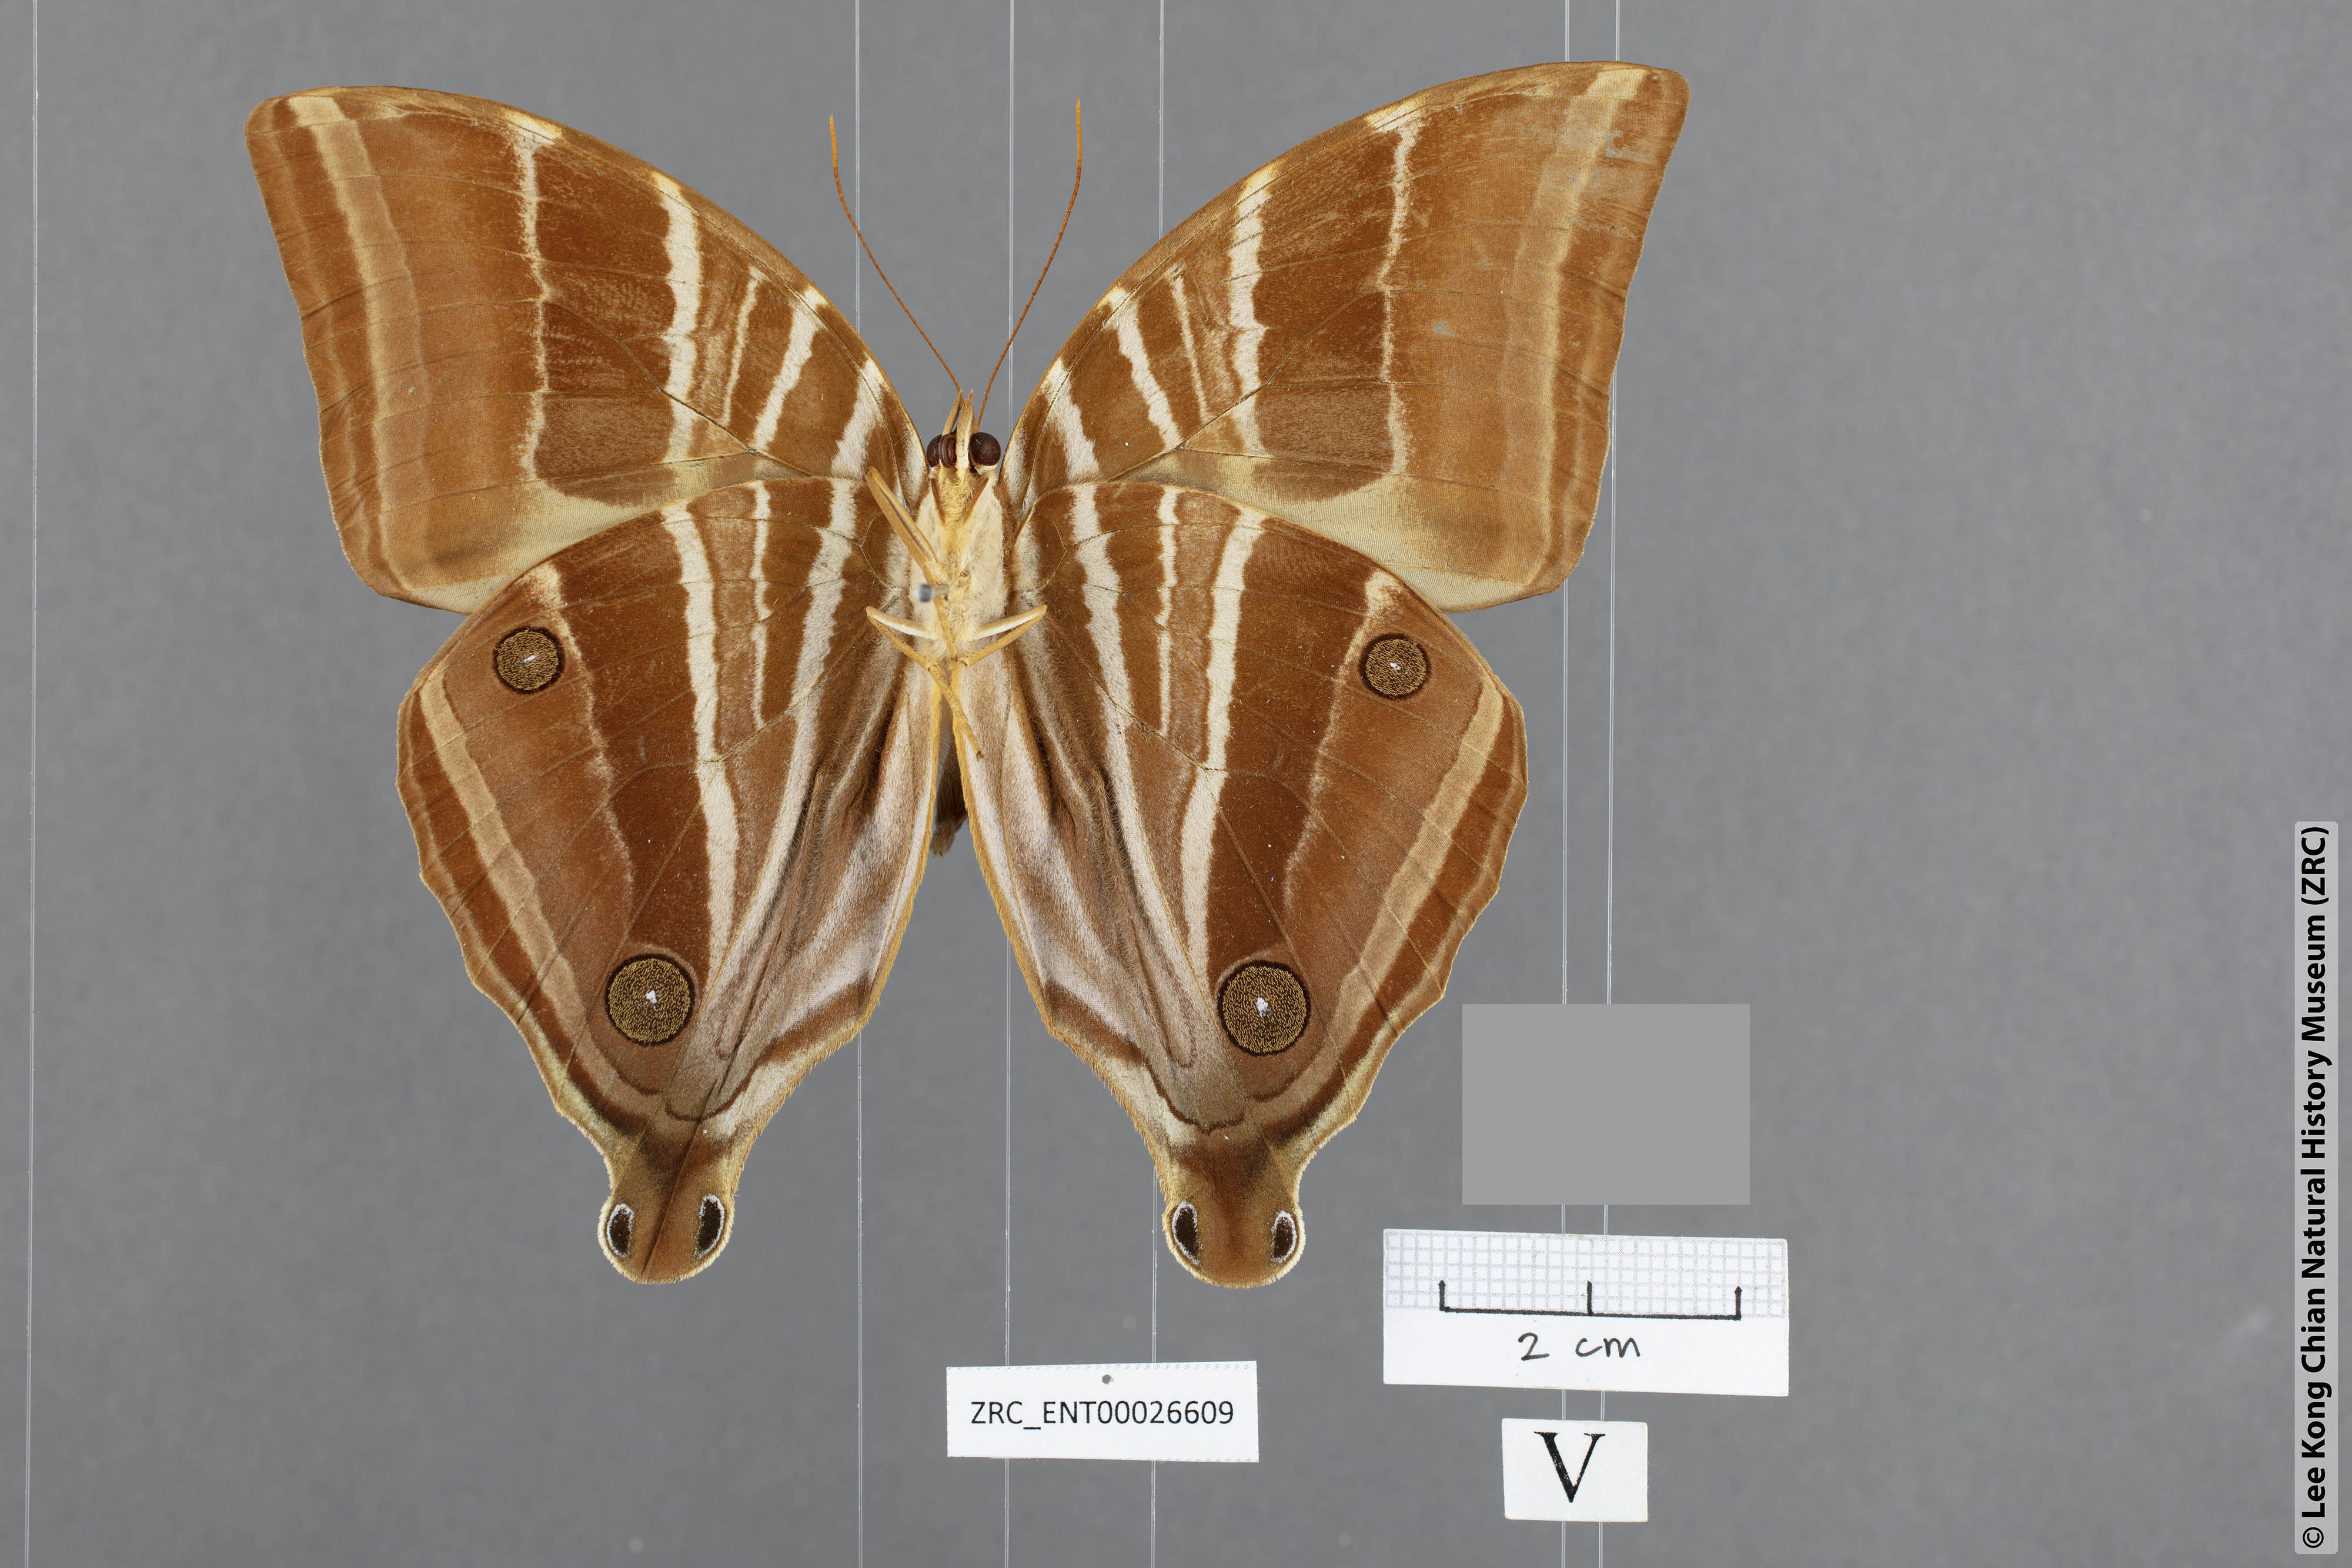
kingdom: Animalia
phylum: Arthropoda
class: Insecta
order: Lepidoptera
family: Nymphalidae
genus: Amathusia
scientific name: Amathusia masina
